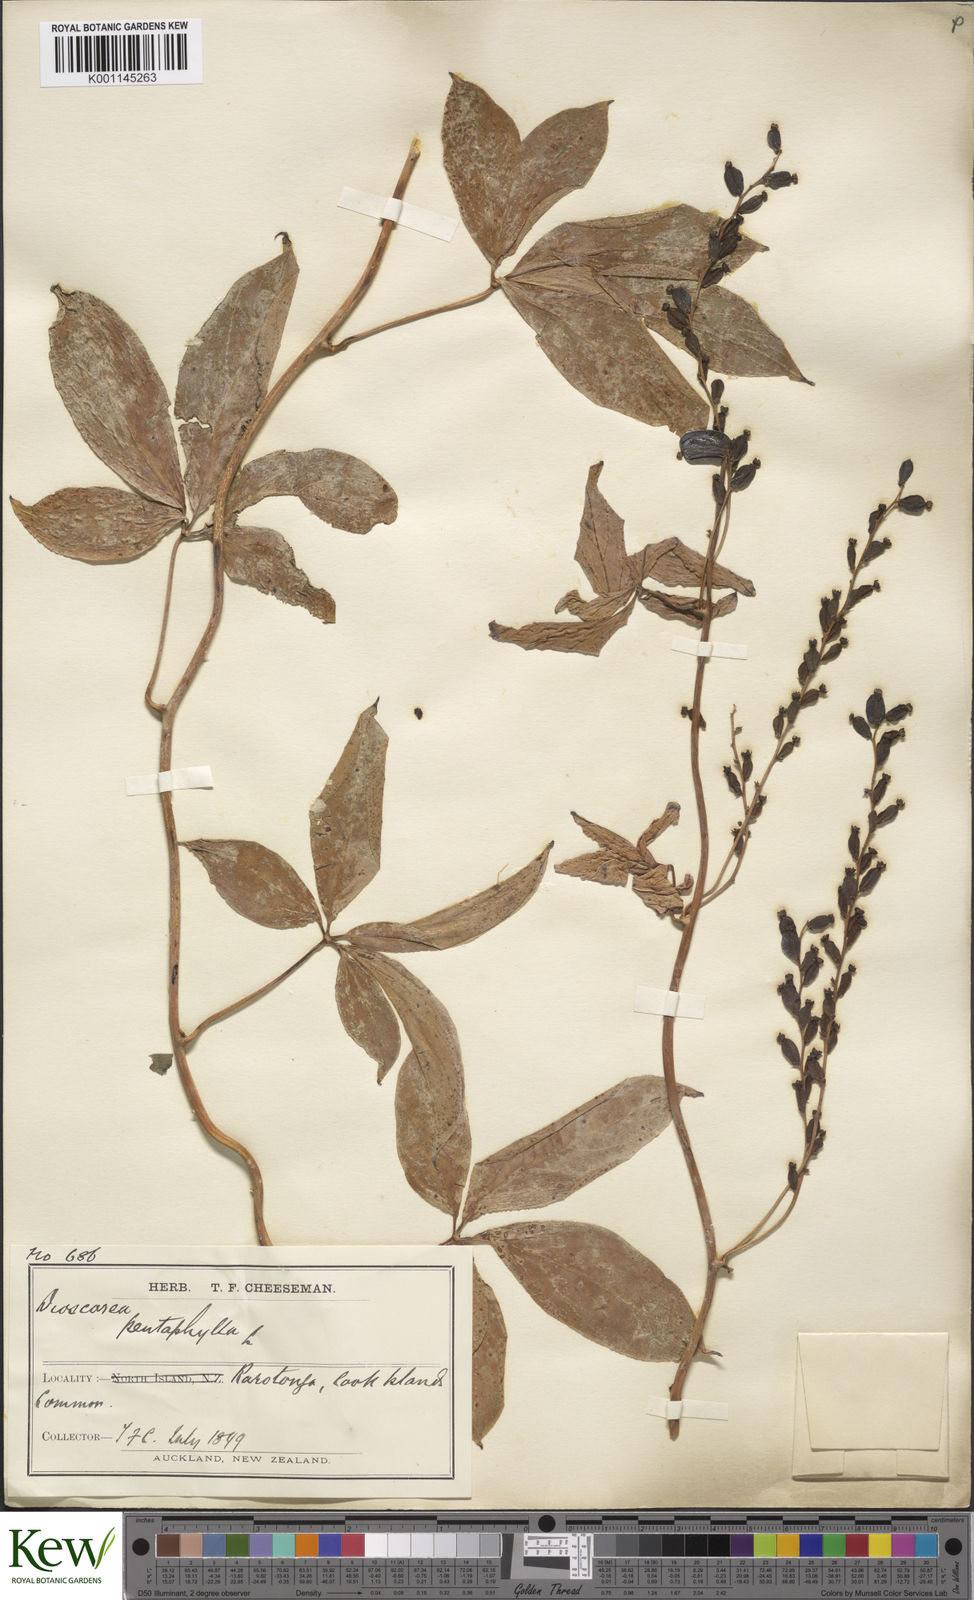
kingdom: Plantae
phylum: Tracheophyta
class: Liliopsida
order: Dioscoreales
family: Dioscoreaceae
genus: Dioscorea
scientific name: Dioscorea pentaphylla
